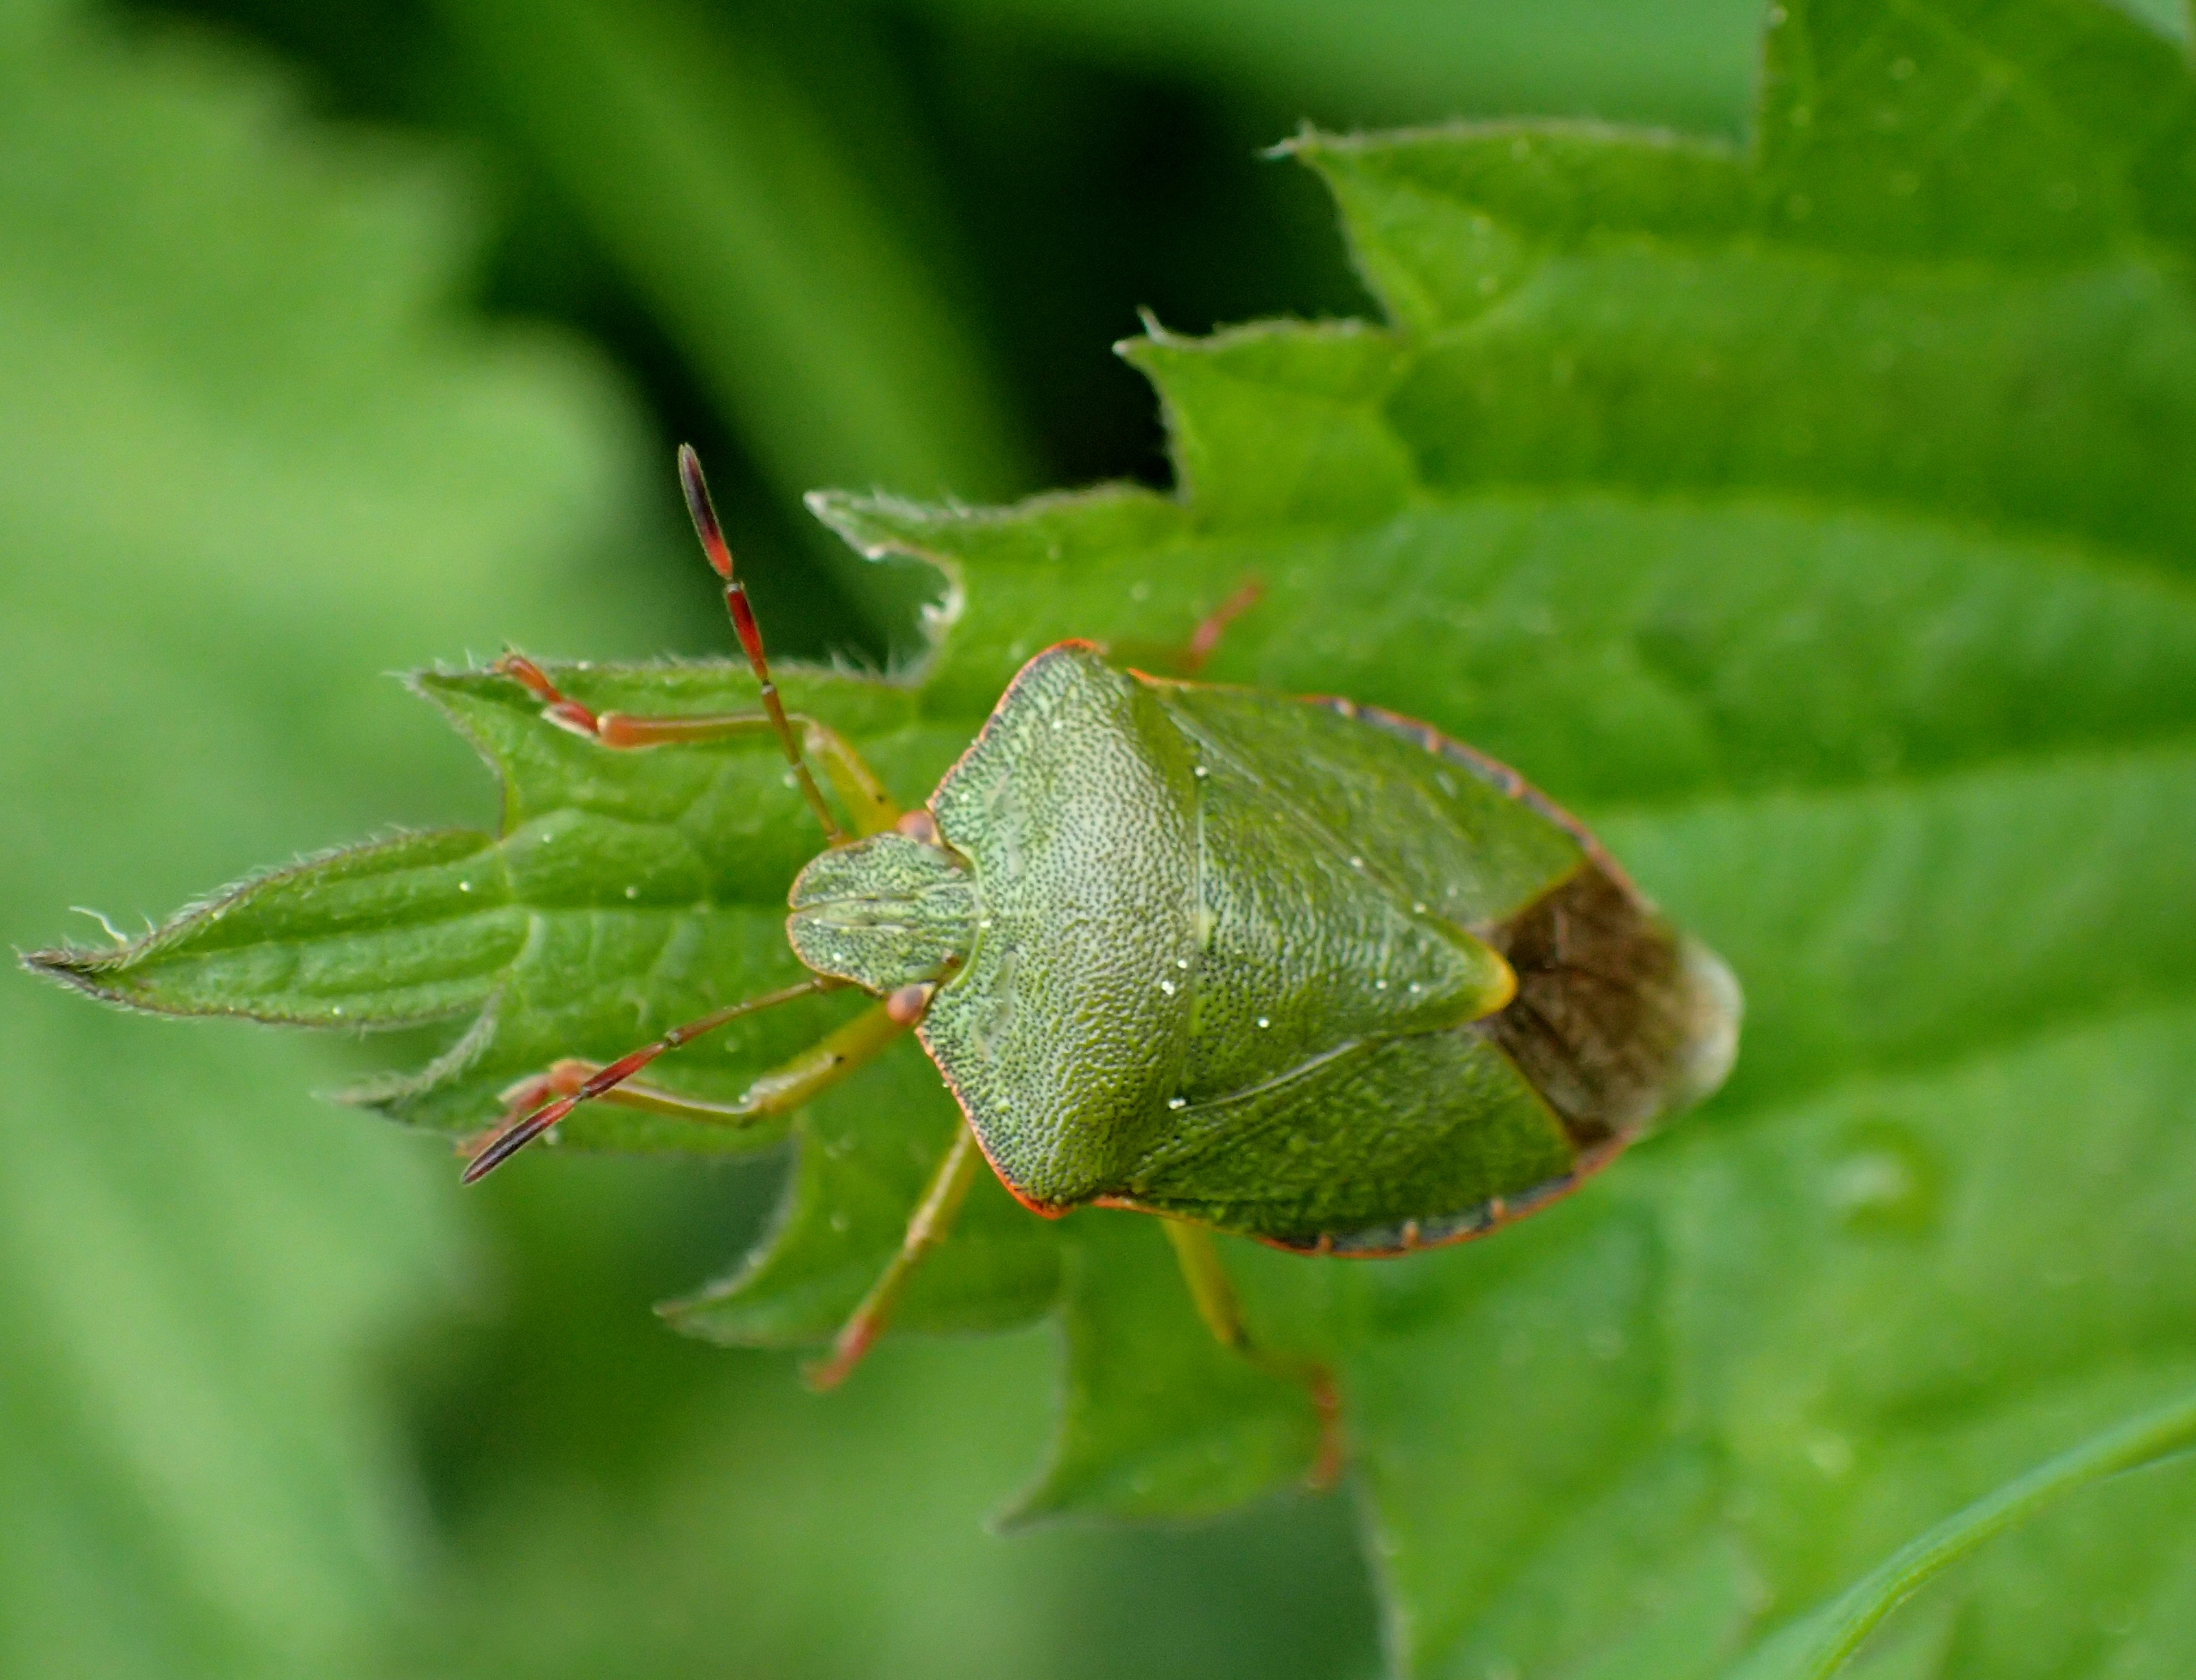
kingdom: Animalia
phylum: Arthropoda
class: Insecta
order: Hemiptera
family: Pentatomidae
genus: Palomena
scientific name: Palomena prasina
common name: Grøn bredtæge
